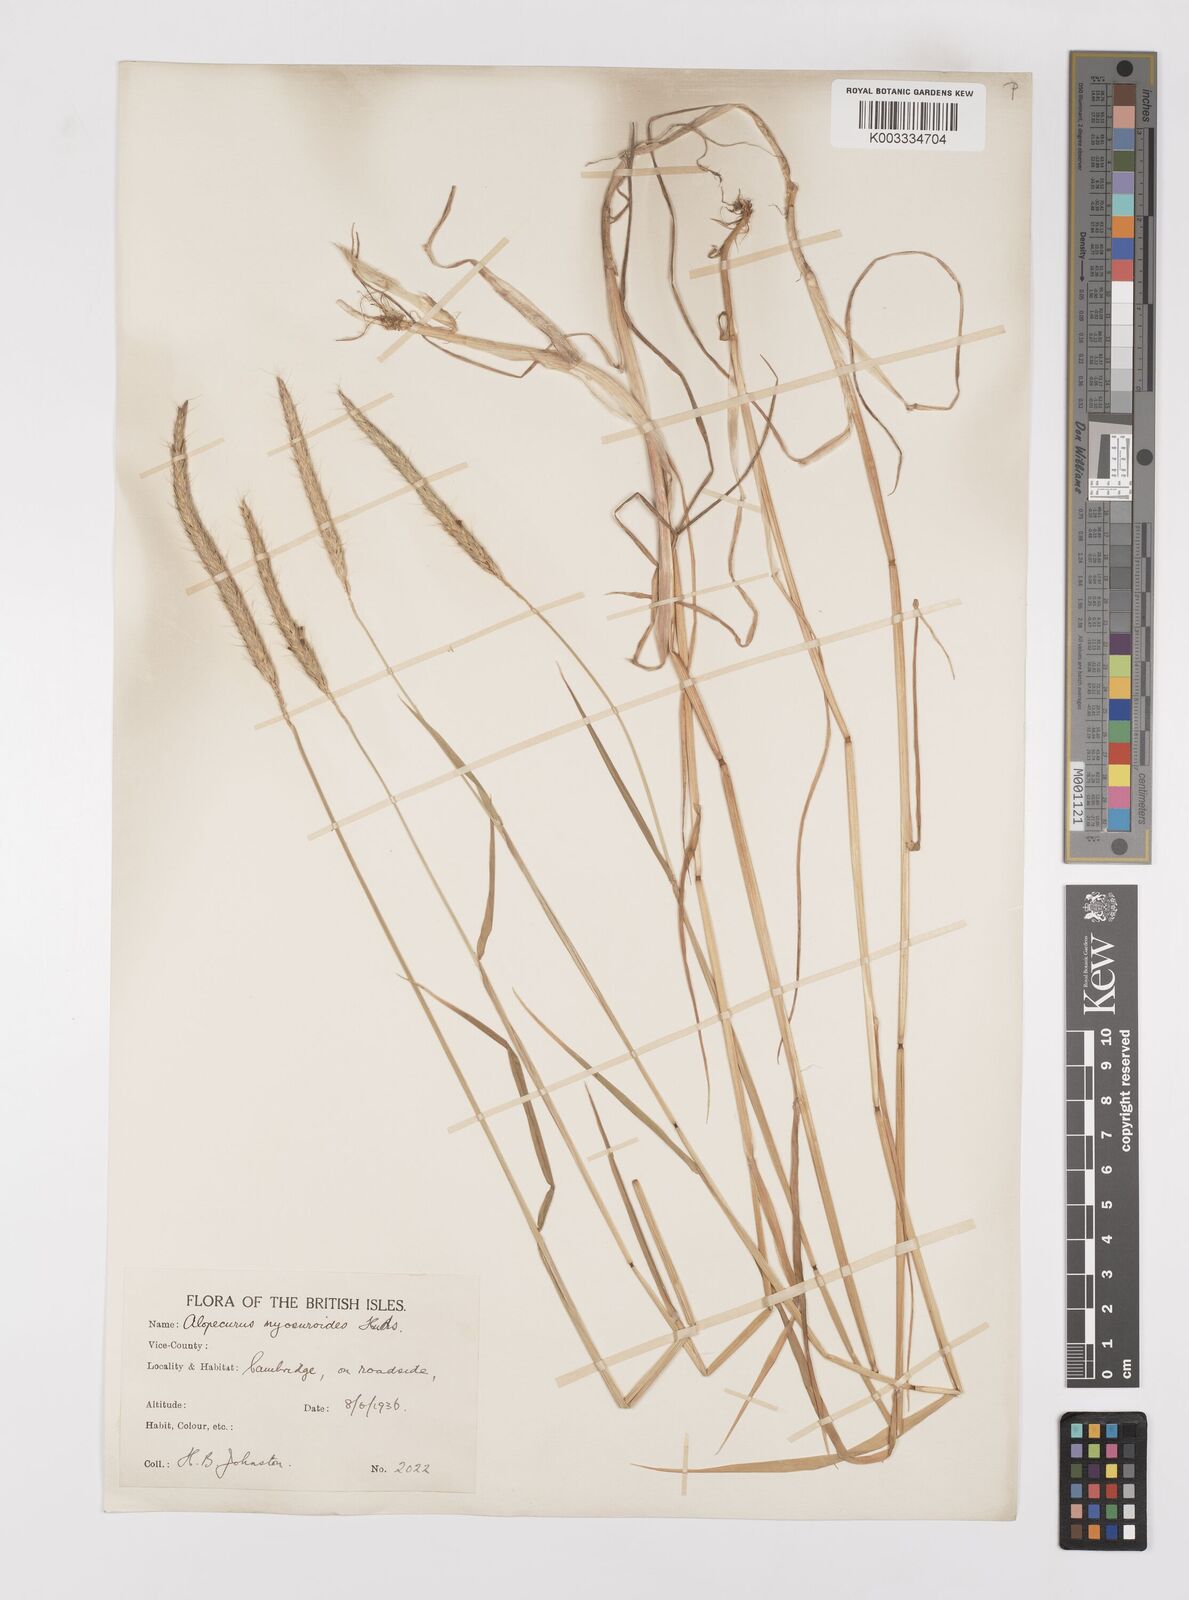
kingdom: Plantae
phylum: Tracheophyta
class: Liliopsida
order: Poales
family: Poaceae
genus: Alopecurus
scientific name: Alopecurus myosuroides
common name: Black-grass
